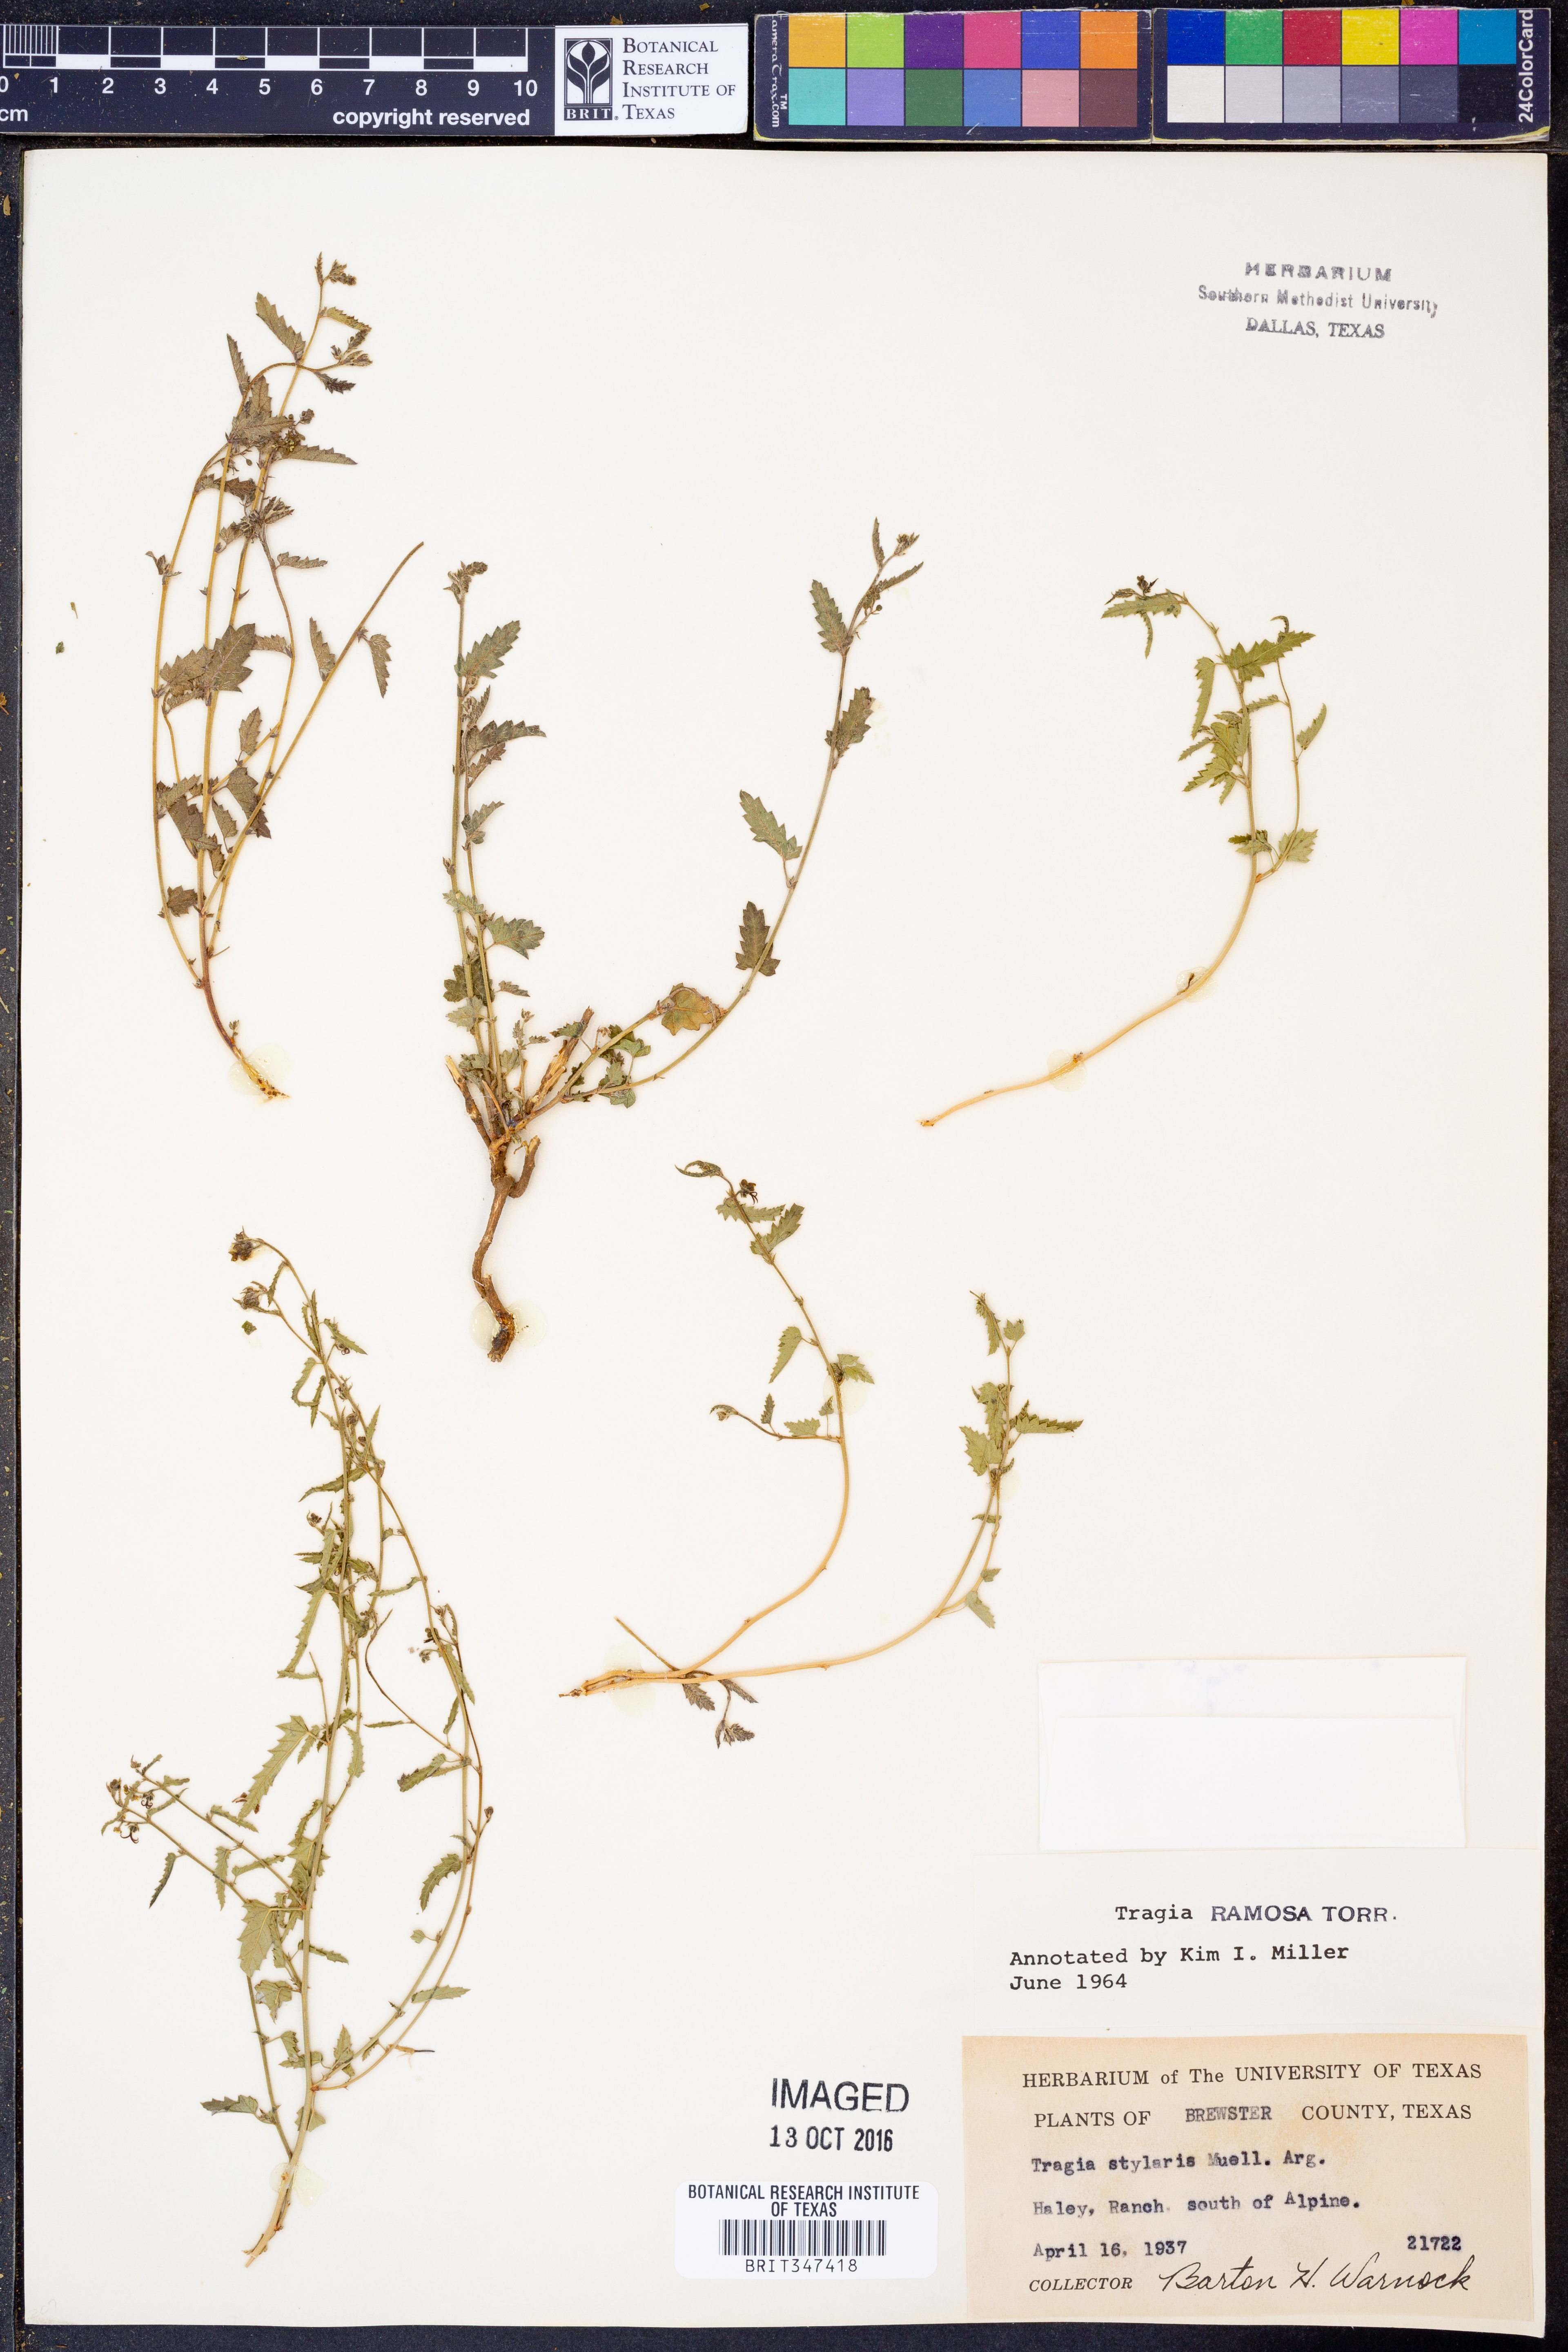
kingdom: Plantae
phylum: Tracheophyta
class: Magnoliopsida
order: Malpighiales
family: Euphorbiaceae
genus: Tragia
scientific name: Tragia ramosa
